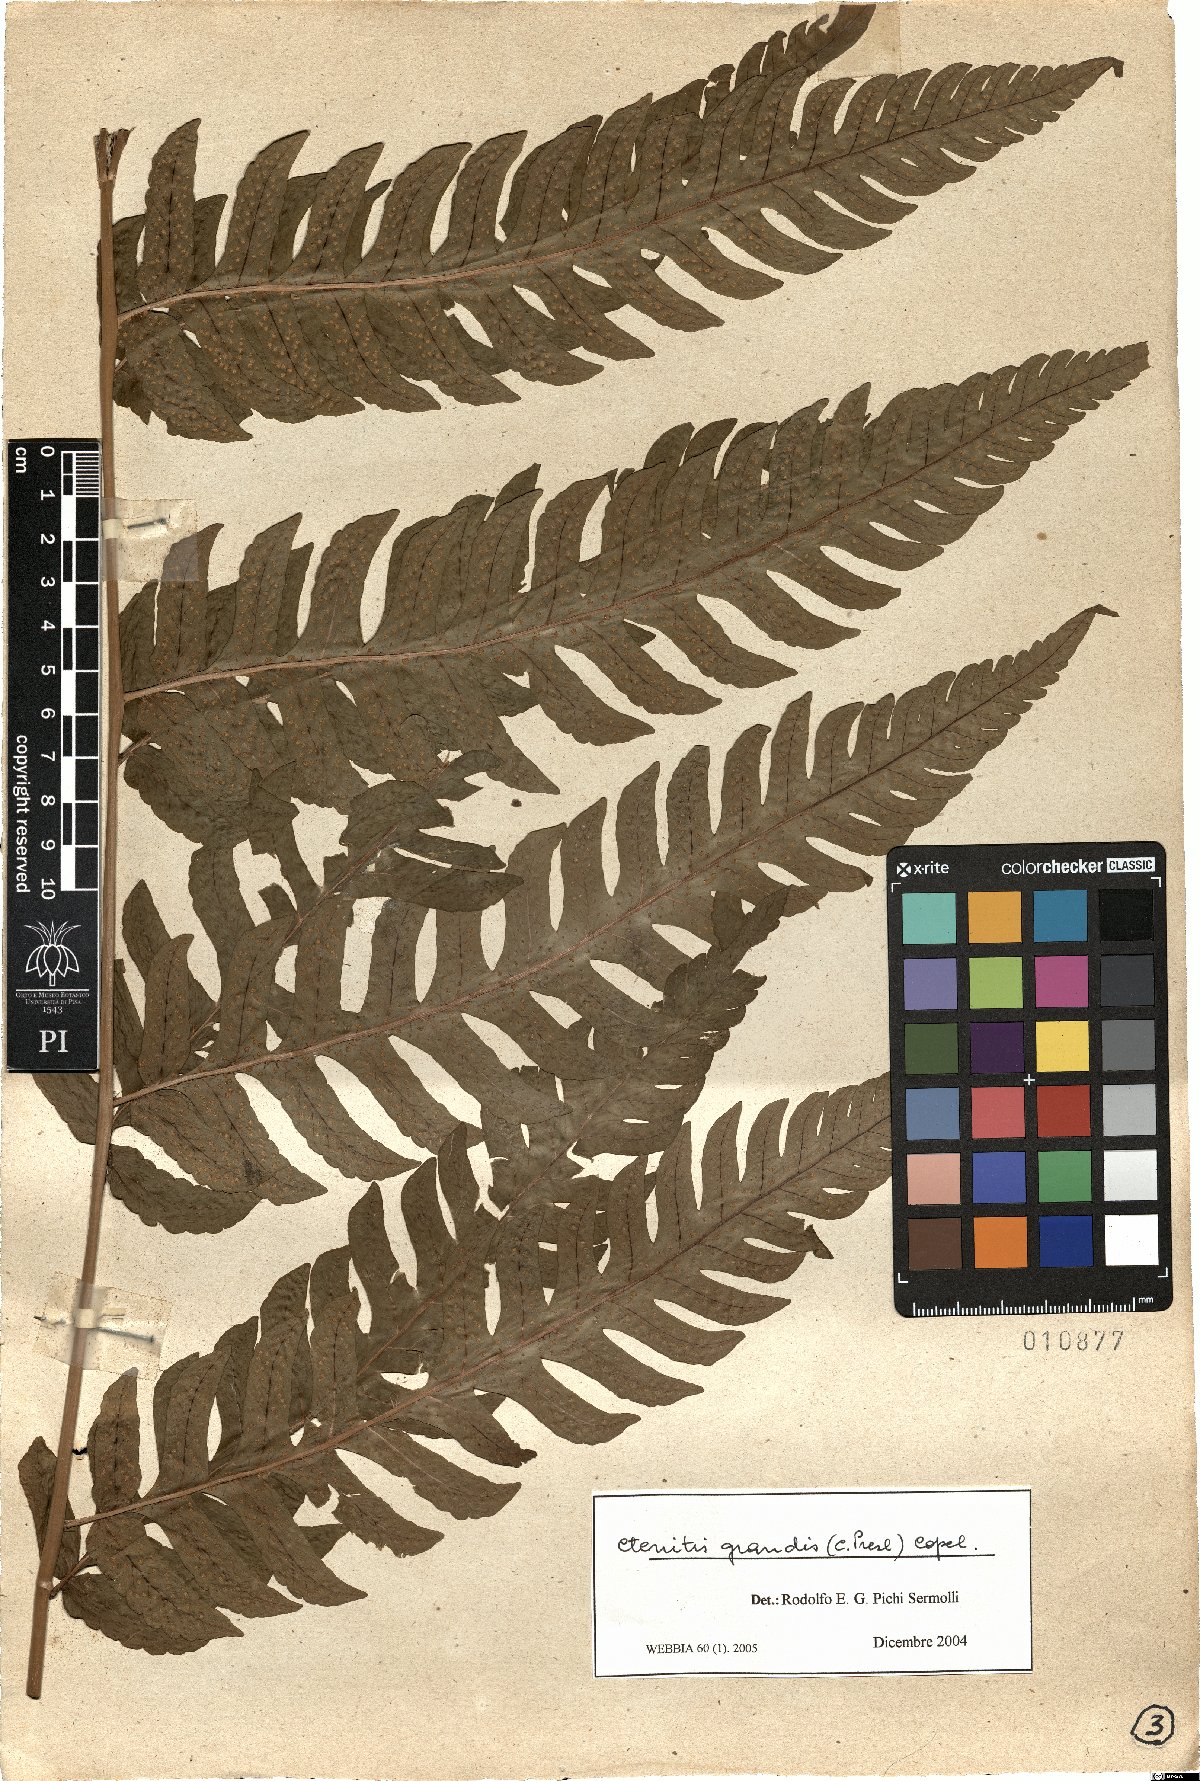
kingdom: Plantae
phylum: Tracheophyta
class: Polypodiopsida
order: Polypodiales
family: Dryopteridaceae
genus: Megalastrum
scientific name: Megalastrum grande
